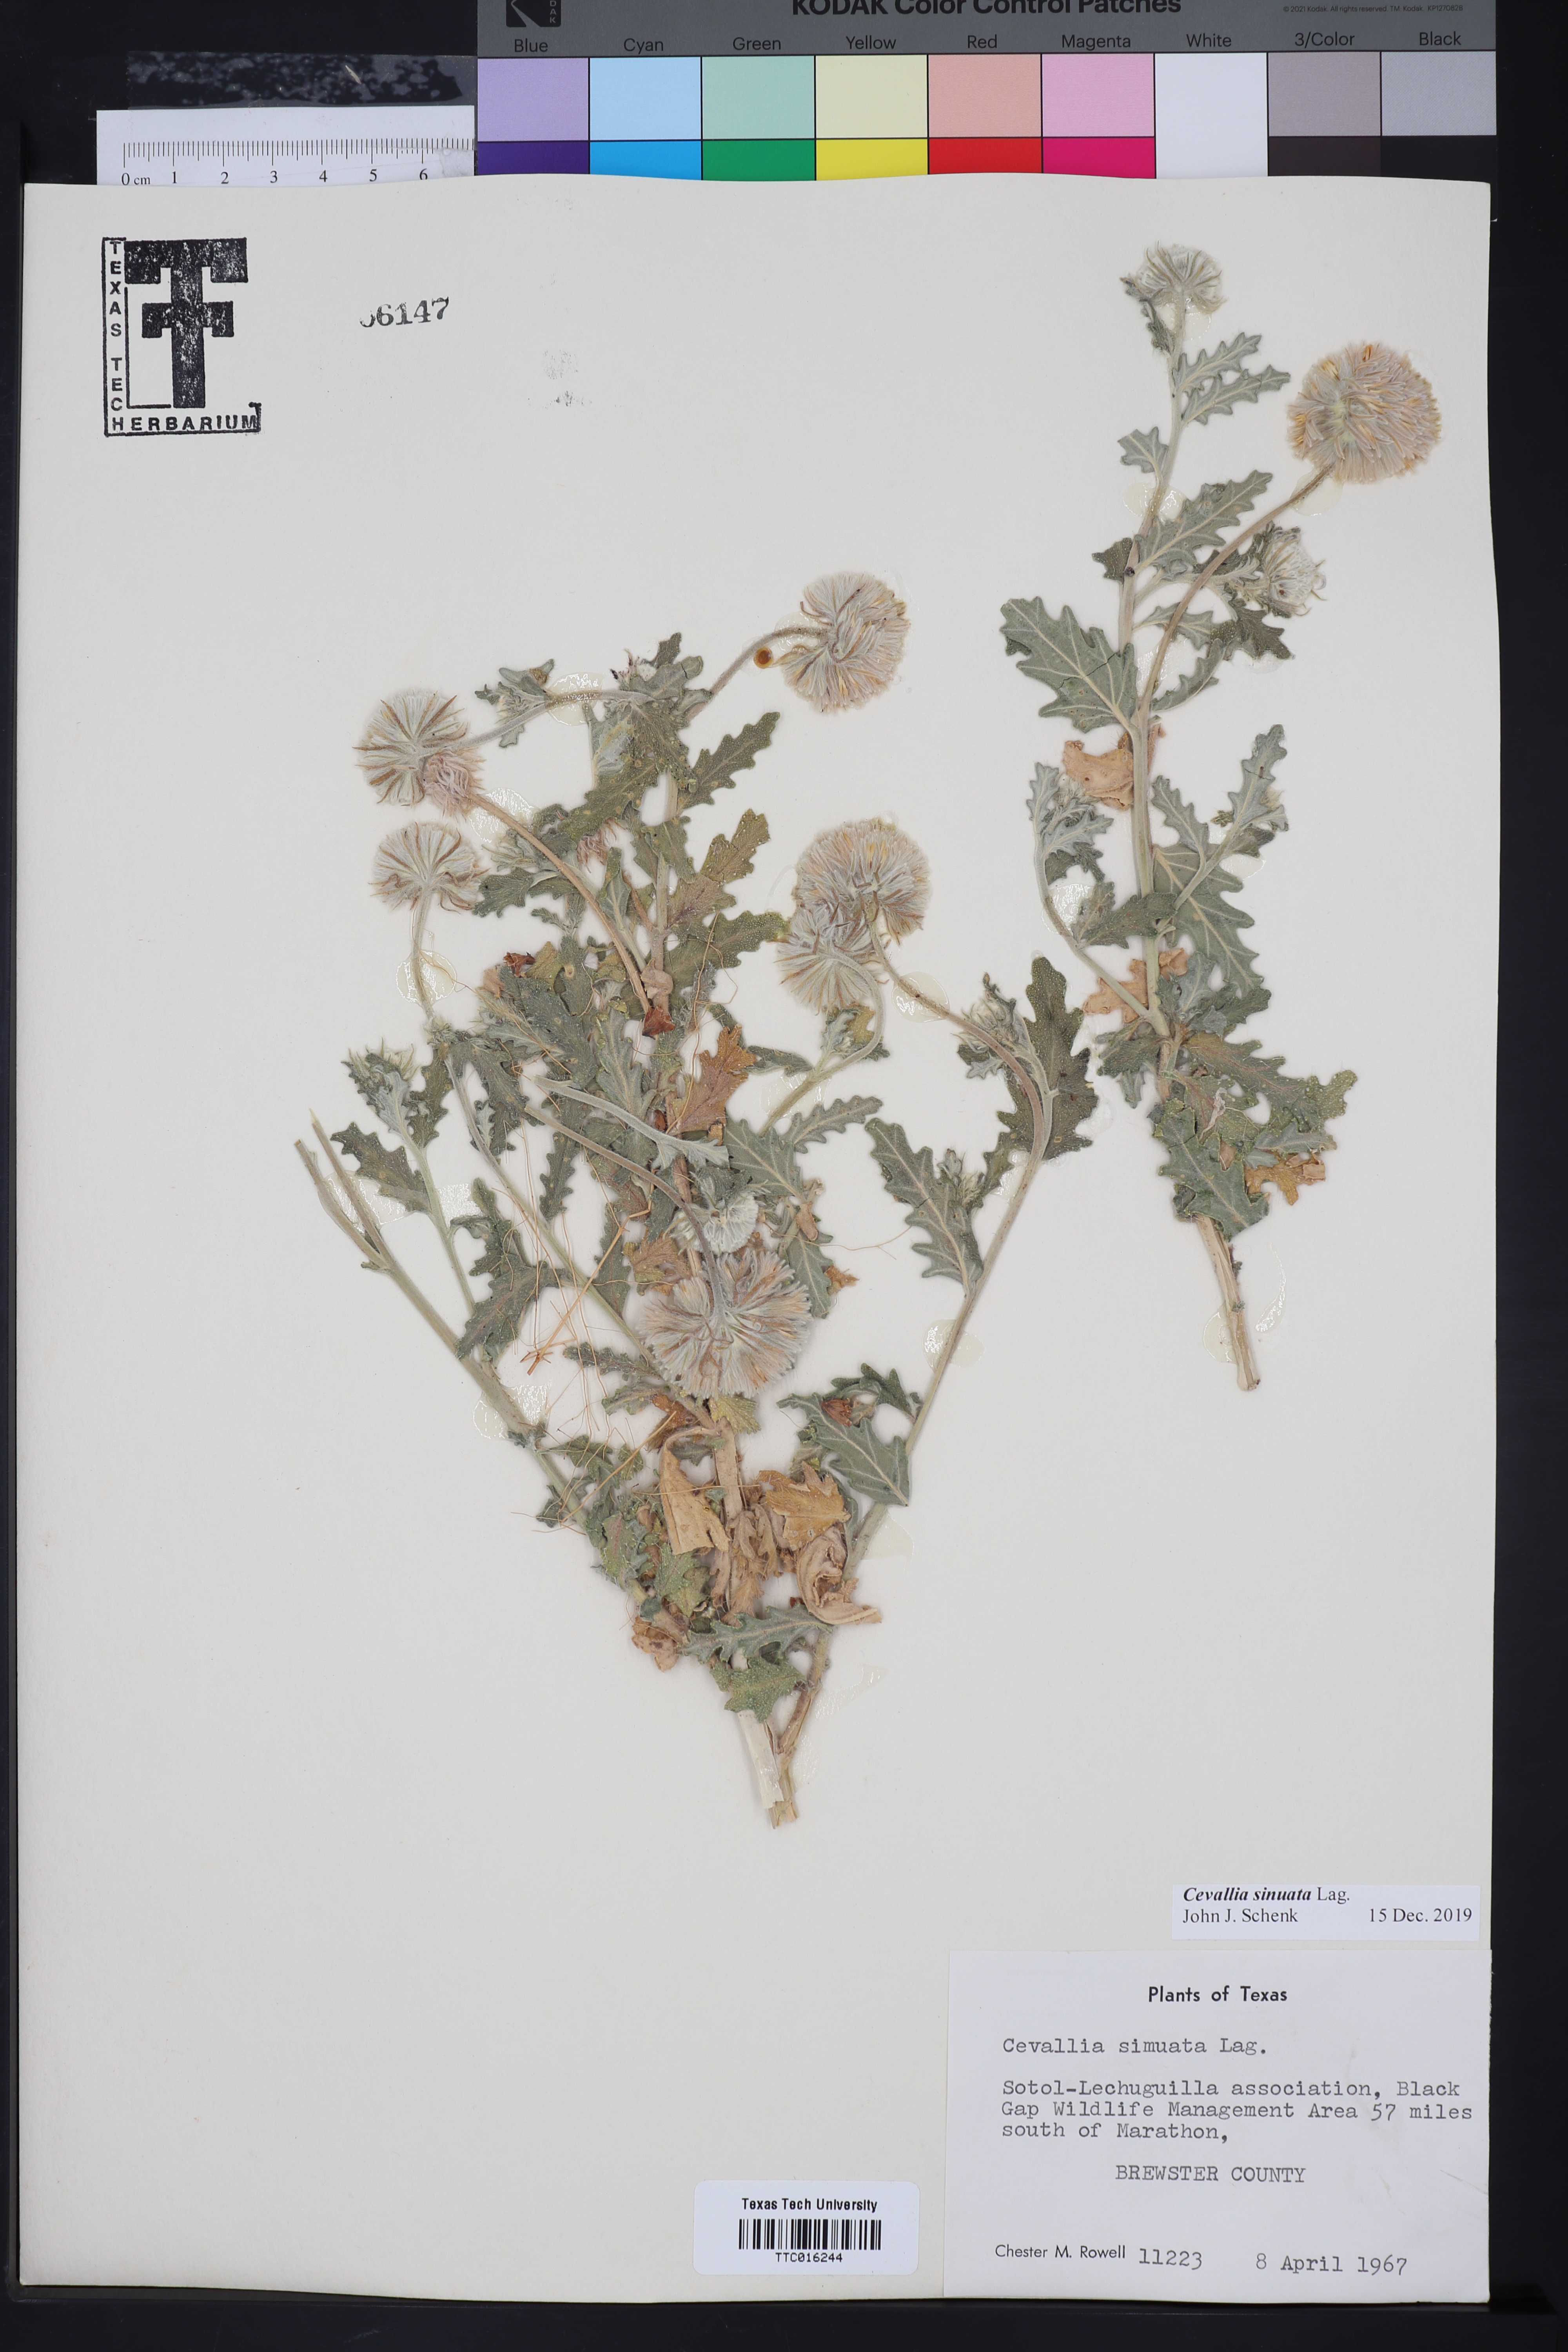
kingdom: Plantae
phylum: Tracheophyta
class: Magnoliopsida
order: Cornales
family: Loasaceae
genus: Cevallia
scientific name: Cevallia sinuata
